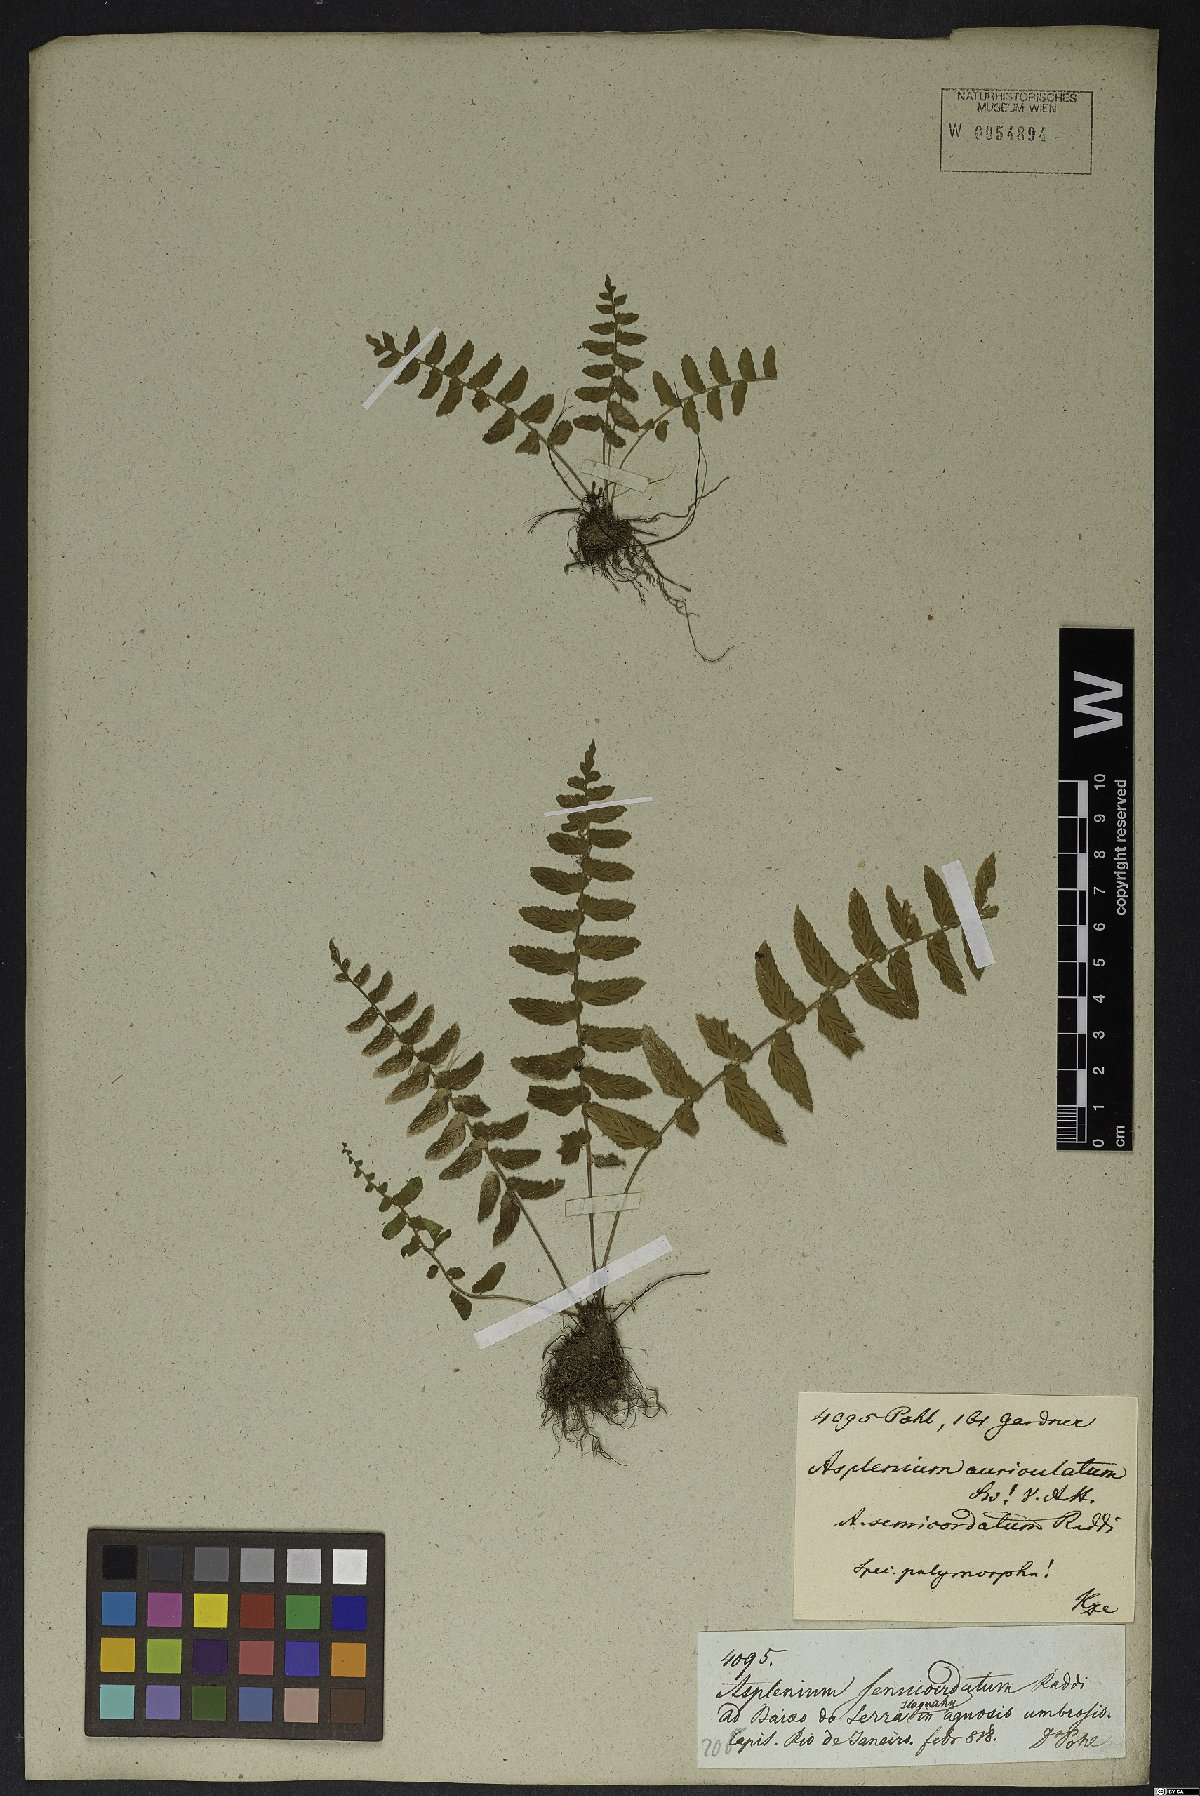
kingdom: Plantae
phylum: Tracheophyta
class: Polypodiopsida
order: Polypodiales
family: Aspleniaceae
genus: Asplenium
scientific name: Asplenium auriculatum
